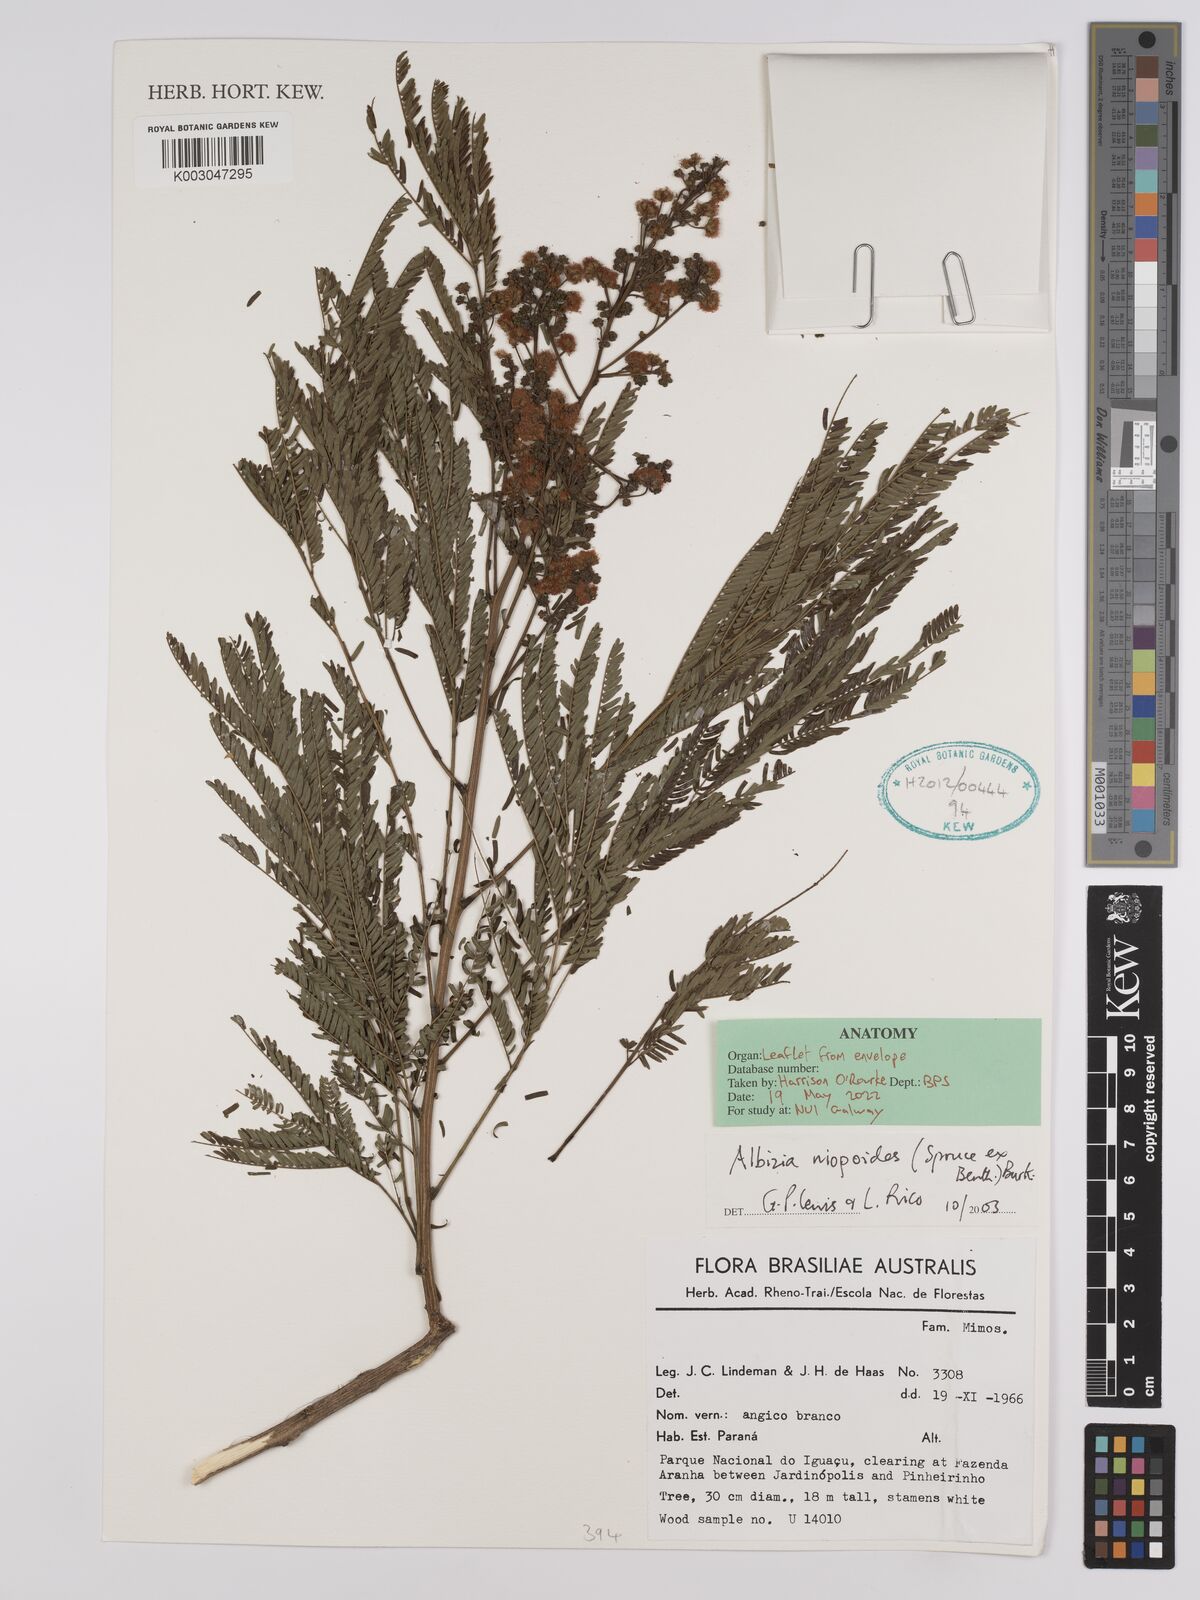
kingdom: Plantae
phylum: Tracheophyta
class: Magnoliopsida
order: Fabales
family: Fabaceae
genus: Albizia
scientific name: Albizia niopoides
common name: Silk tree
